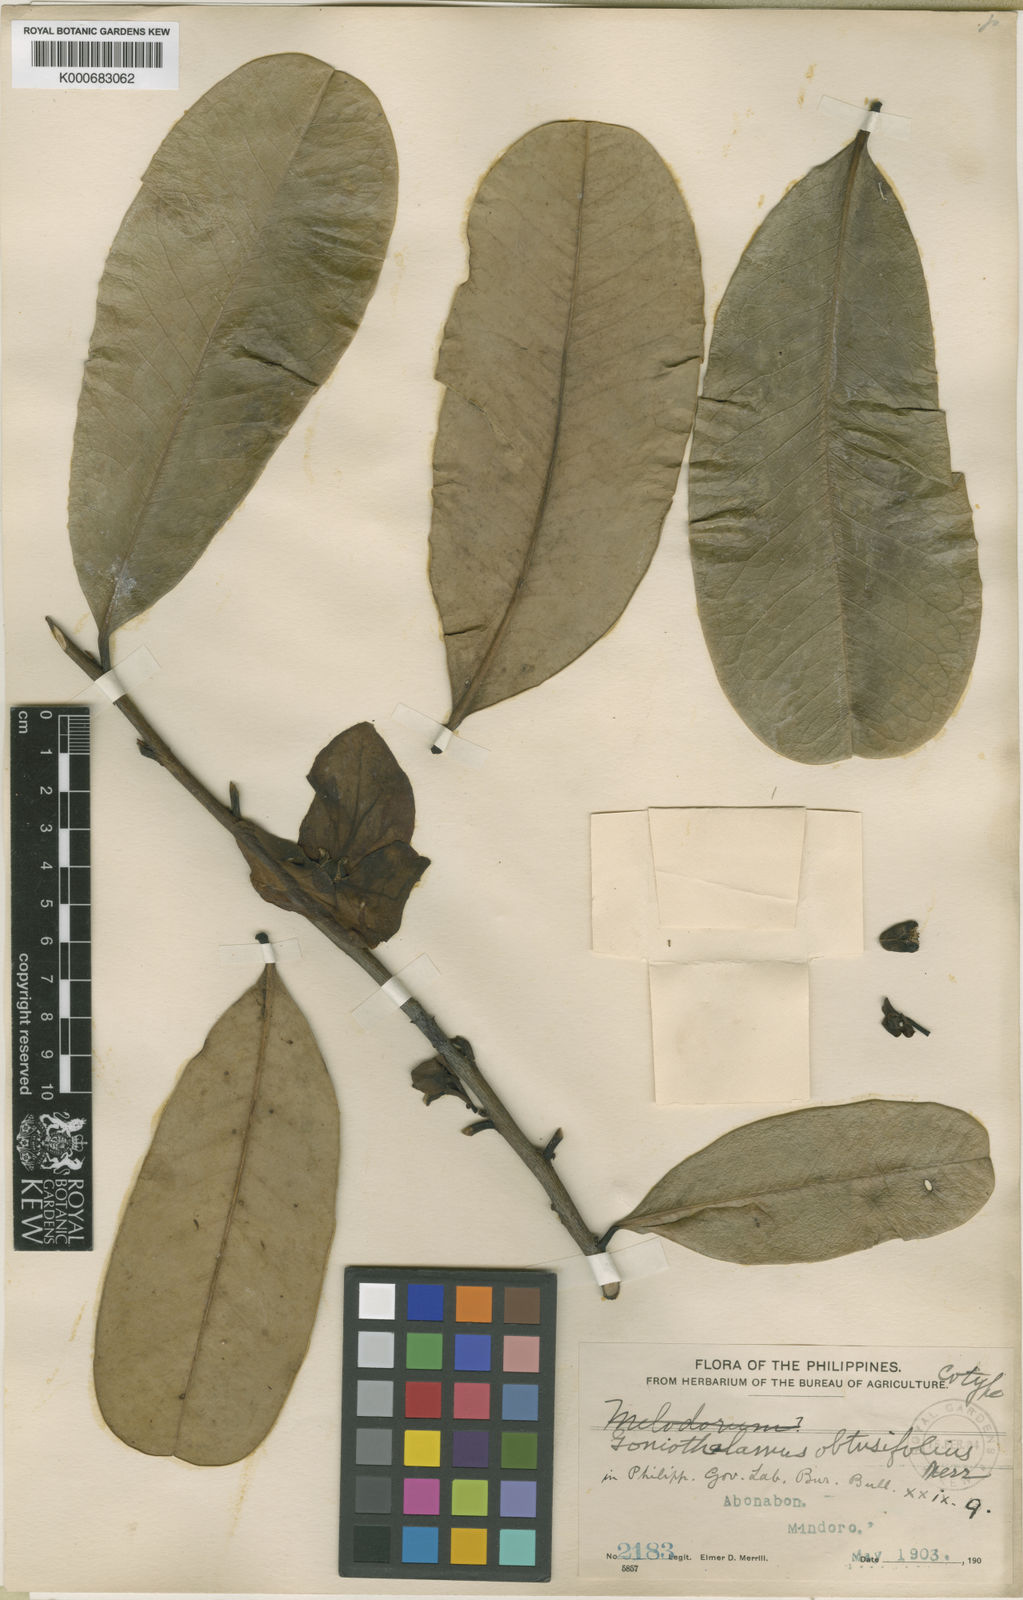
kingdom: Plantae
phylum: Tracheophyta
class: Magnoliopsida
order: Magnoliales
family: Annonaceae
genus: Goniothalamus
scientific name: Goniothalamus obtusifolius
